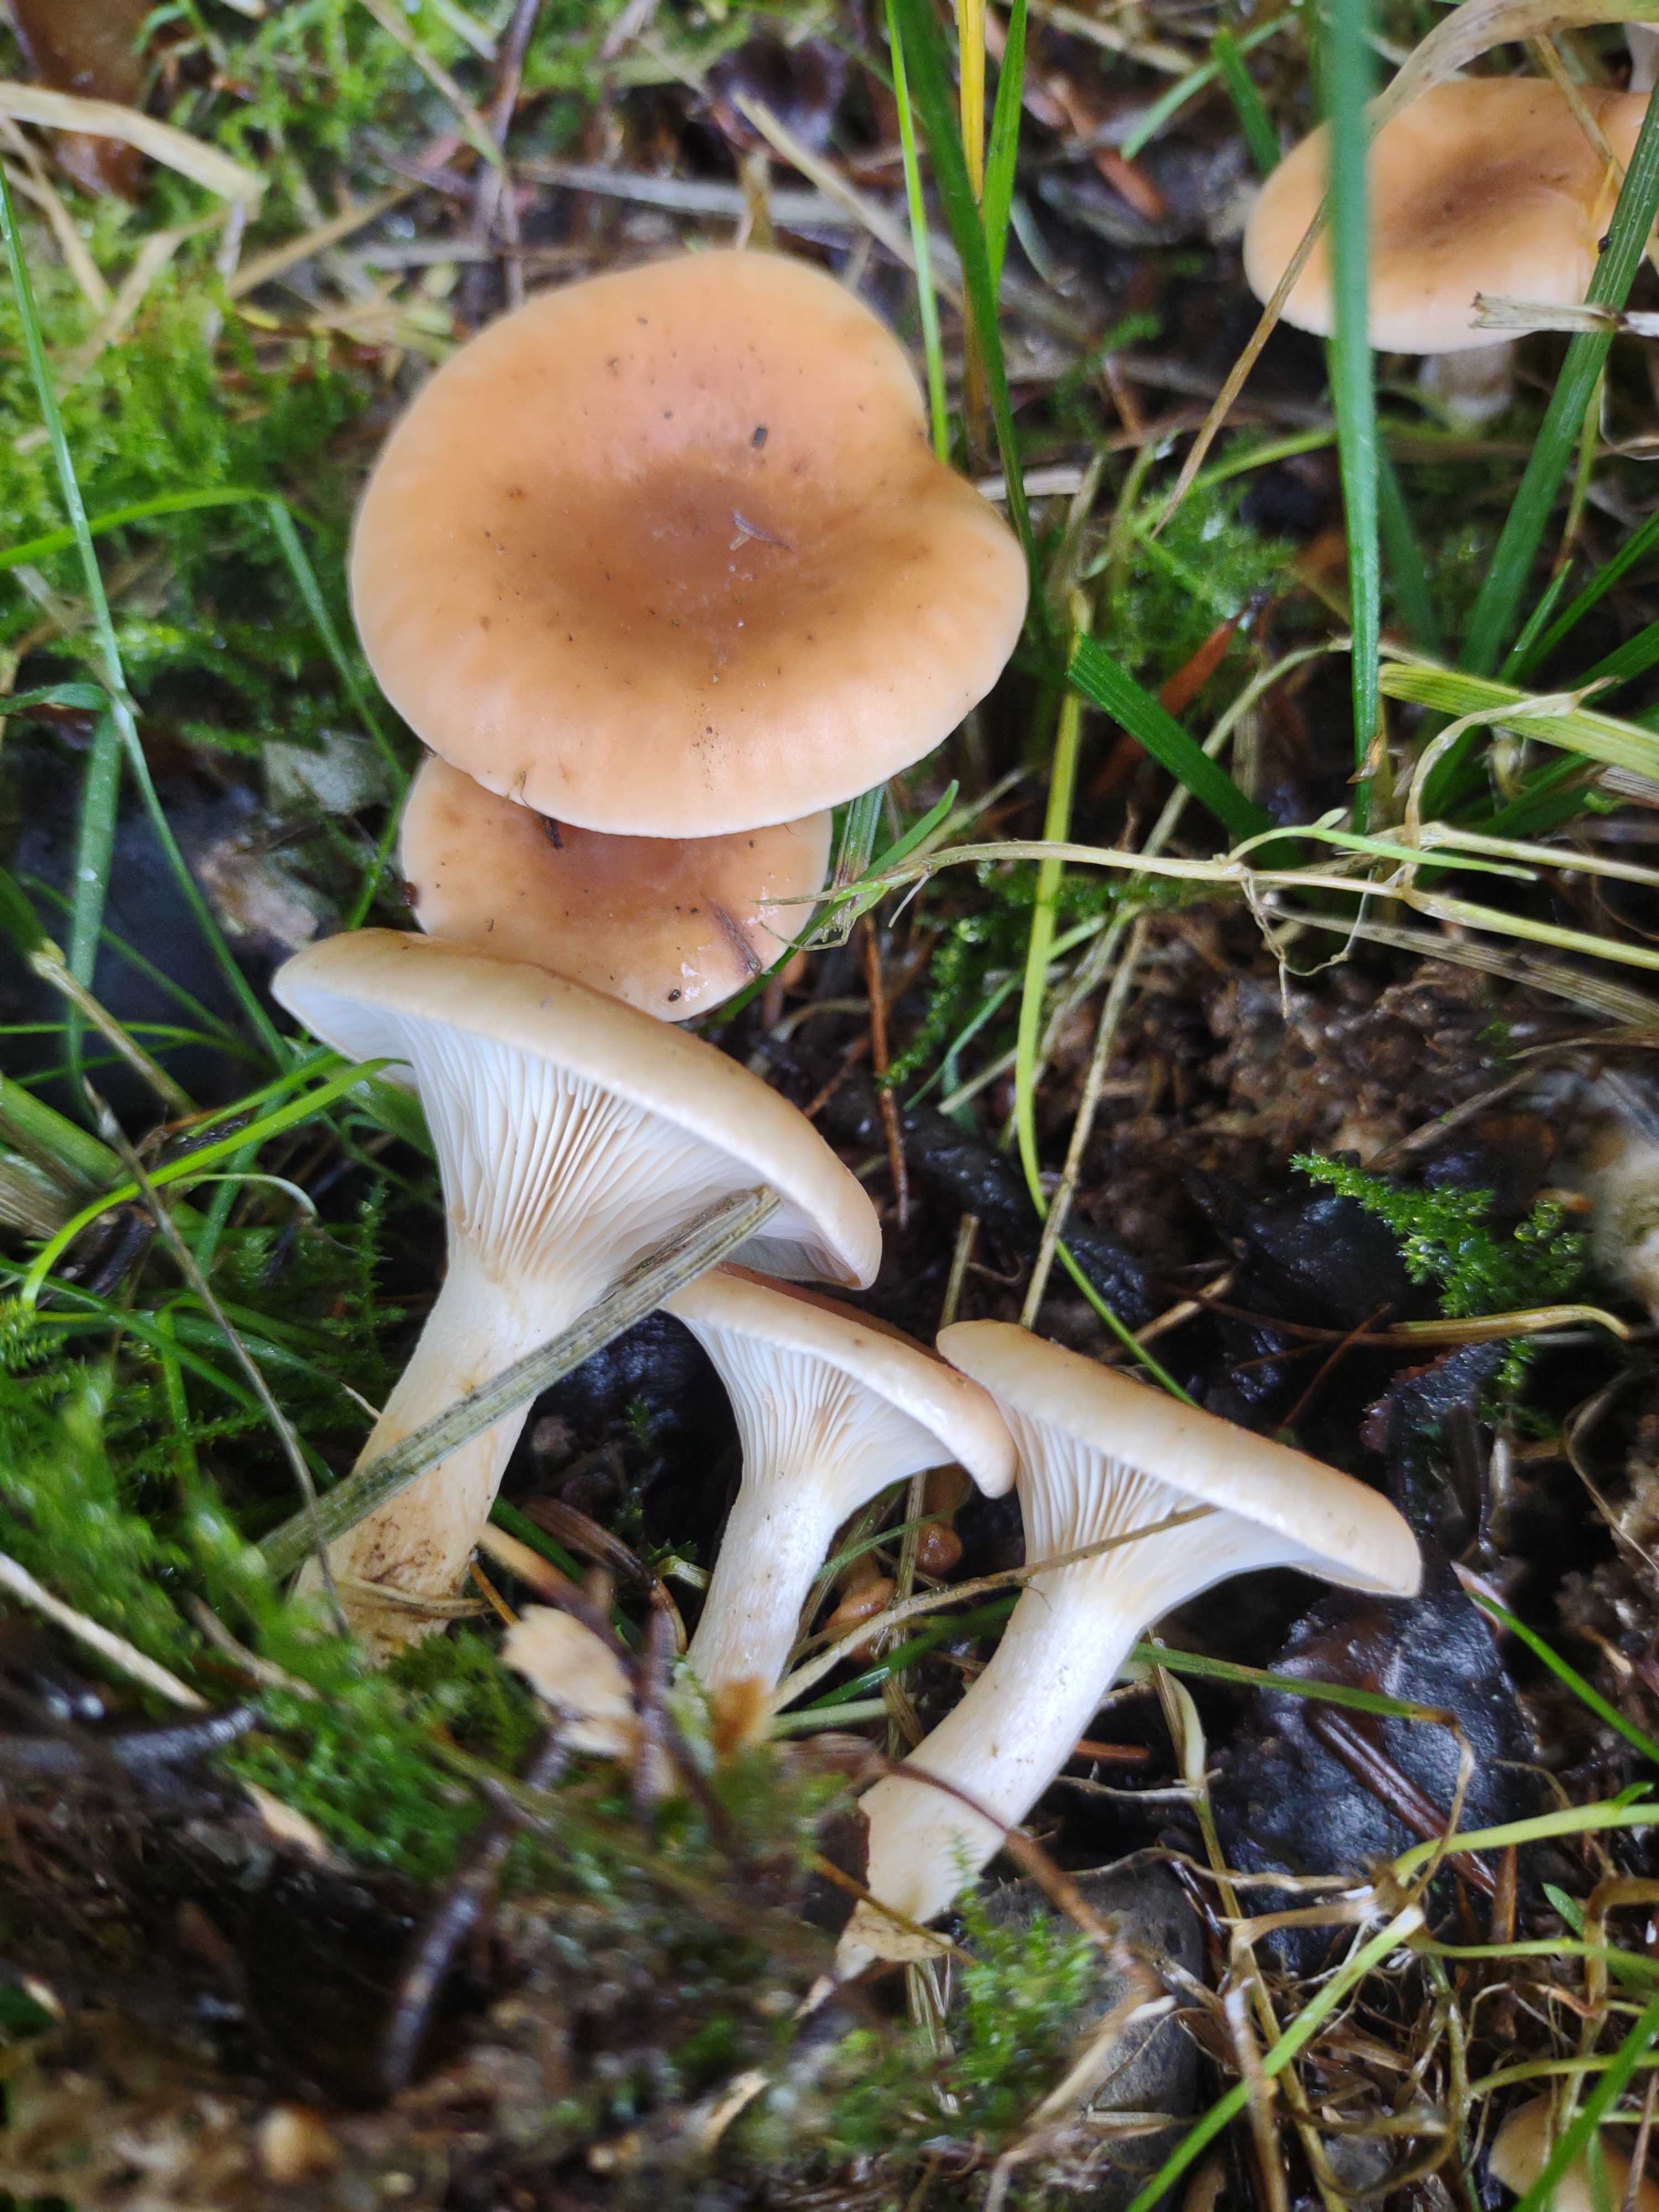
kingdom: Fungi
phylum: Basidiomycota
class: Agaricomycetes
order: Agaricales
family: Tricholomataceae
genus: Paralepista
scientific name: Paralepista flaccida
